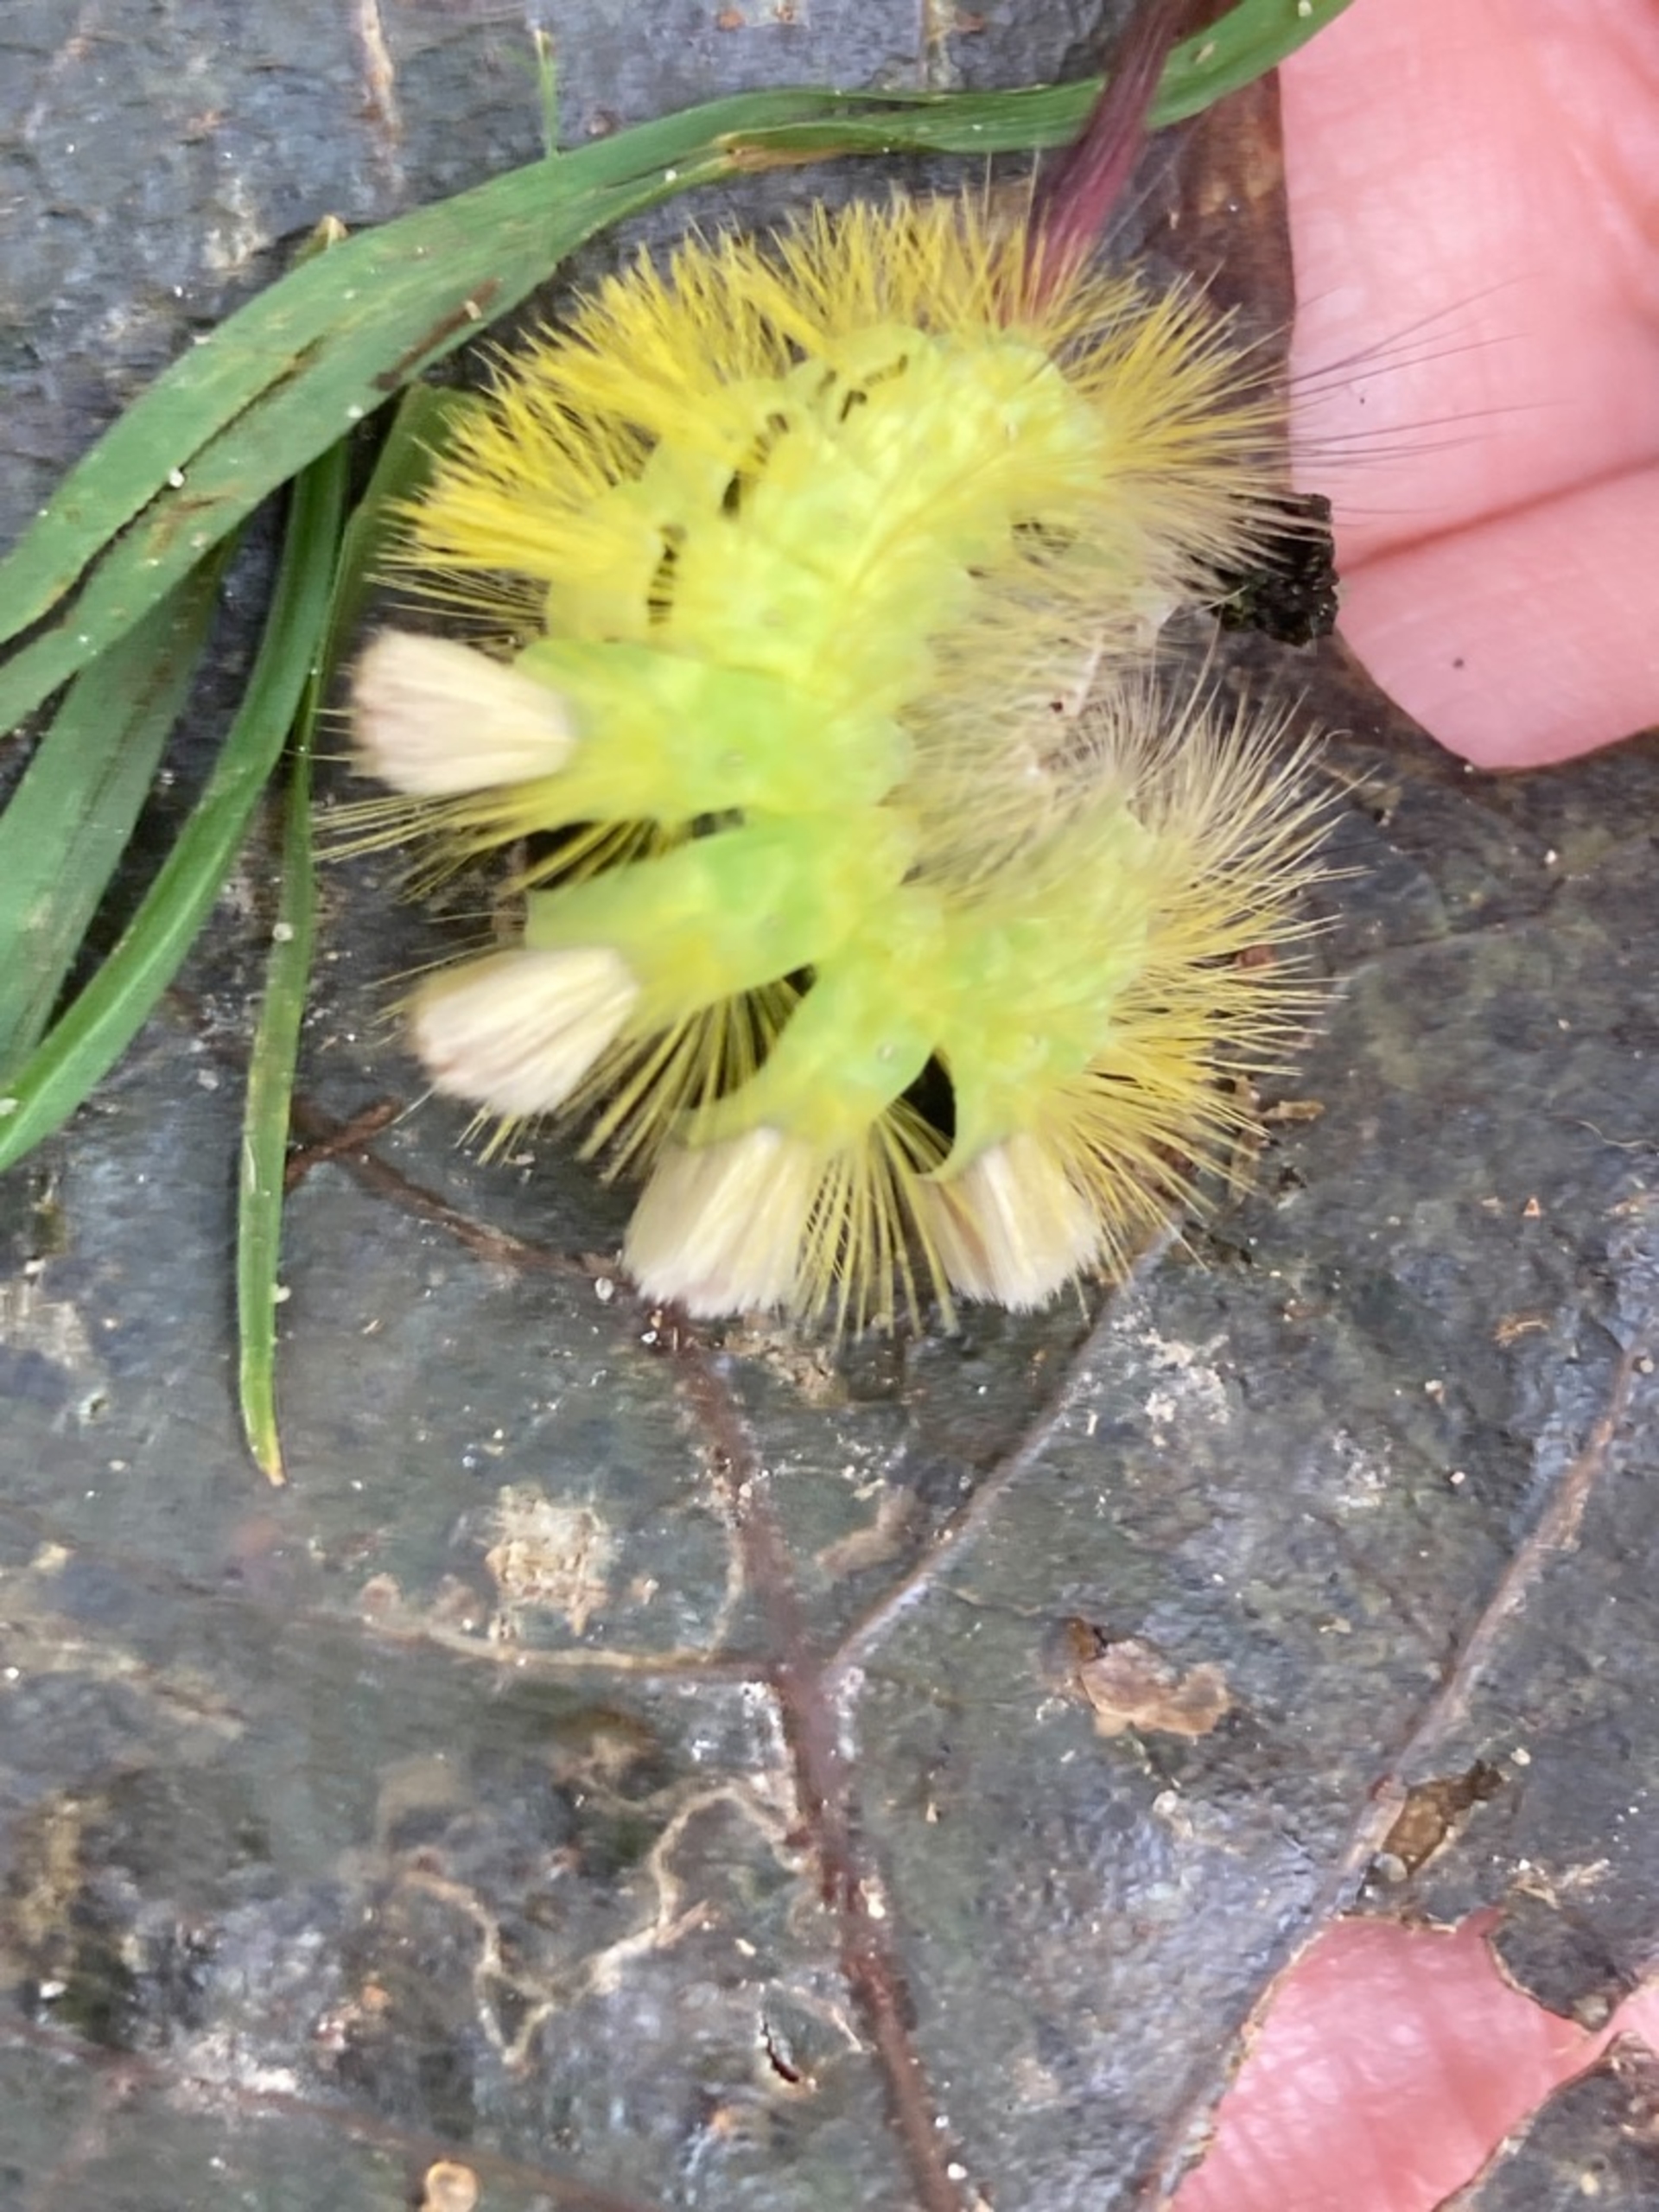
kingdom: Animalia
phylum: Arthropoda
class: Insecta
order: Lepidoptera
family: Erebidae
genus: Calliteara
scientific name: Calliteara pudibunda
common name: Bøgenonne
